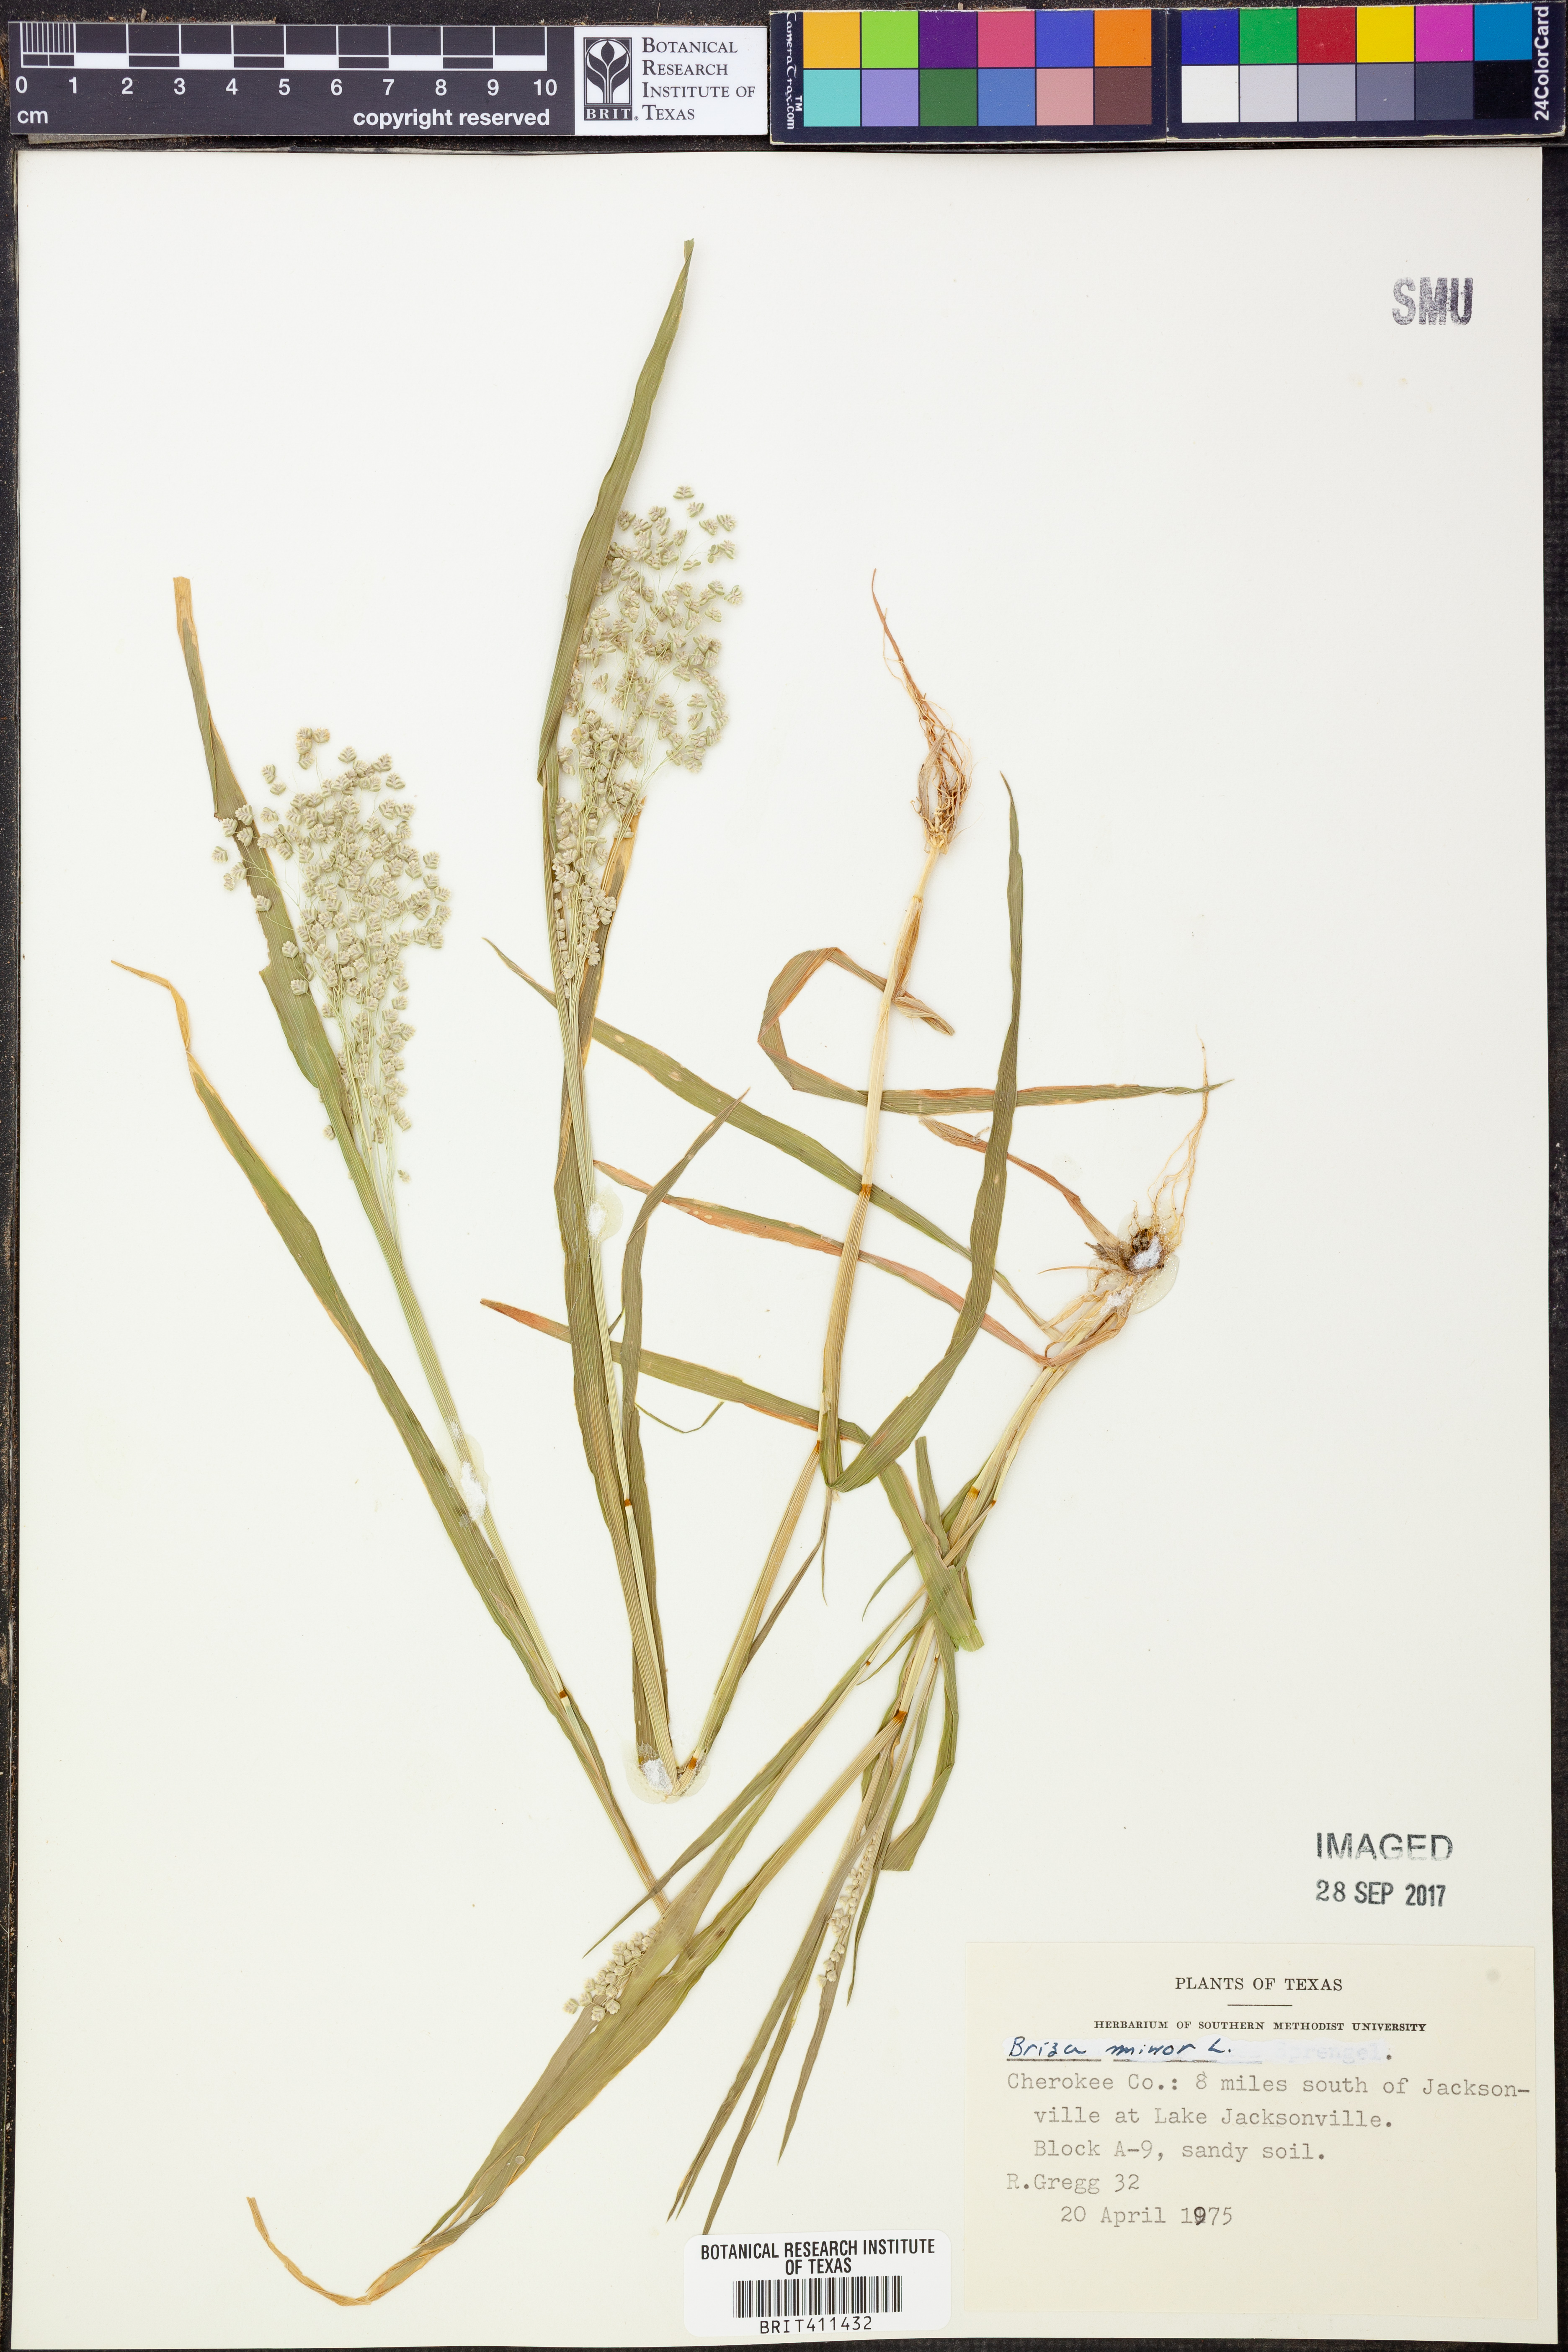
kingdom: Plantae
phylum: Tracheophyta
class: Liliopsida
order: Poales
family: Poaceae
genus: Briza
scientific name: Briza minor
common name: Lesser quaking-grass
